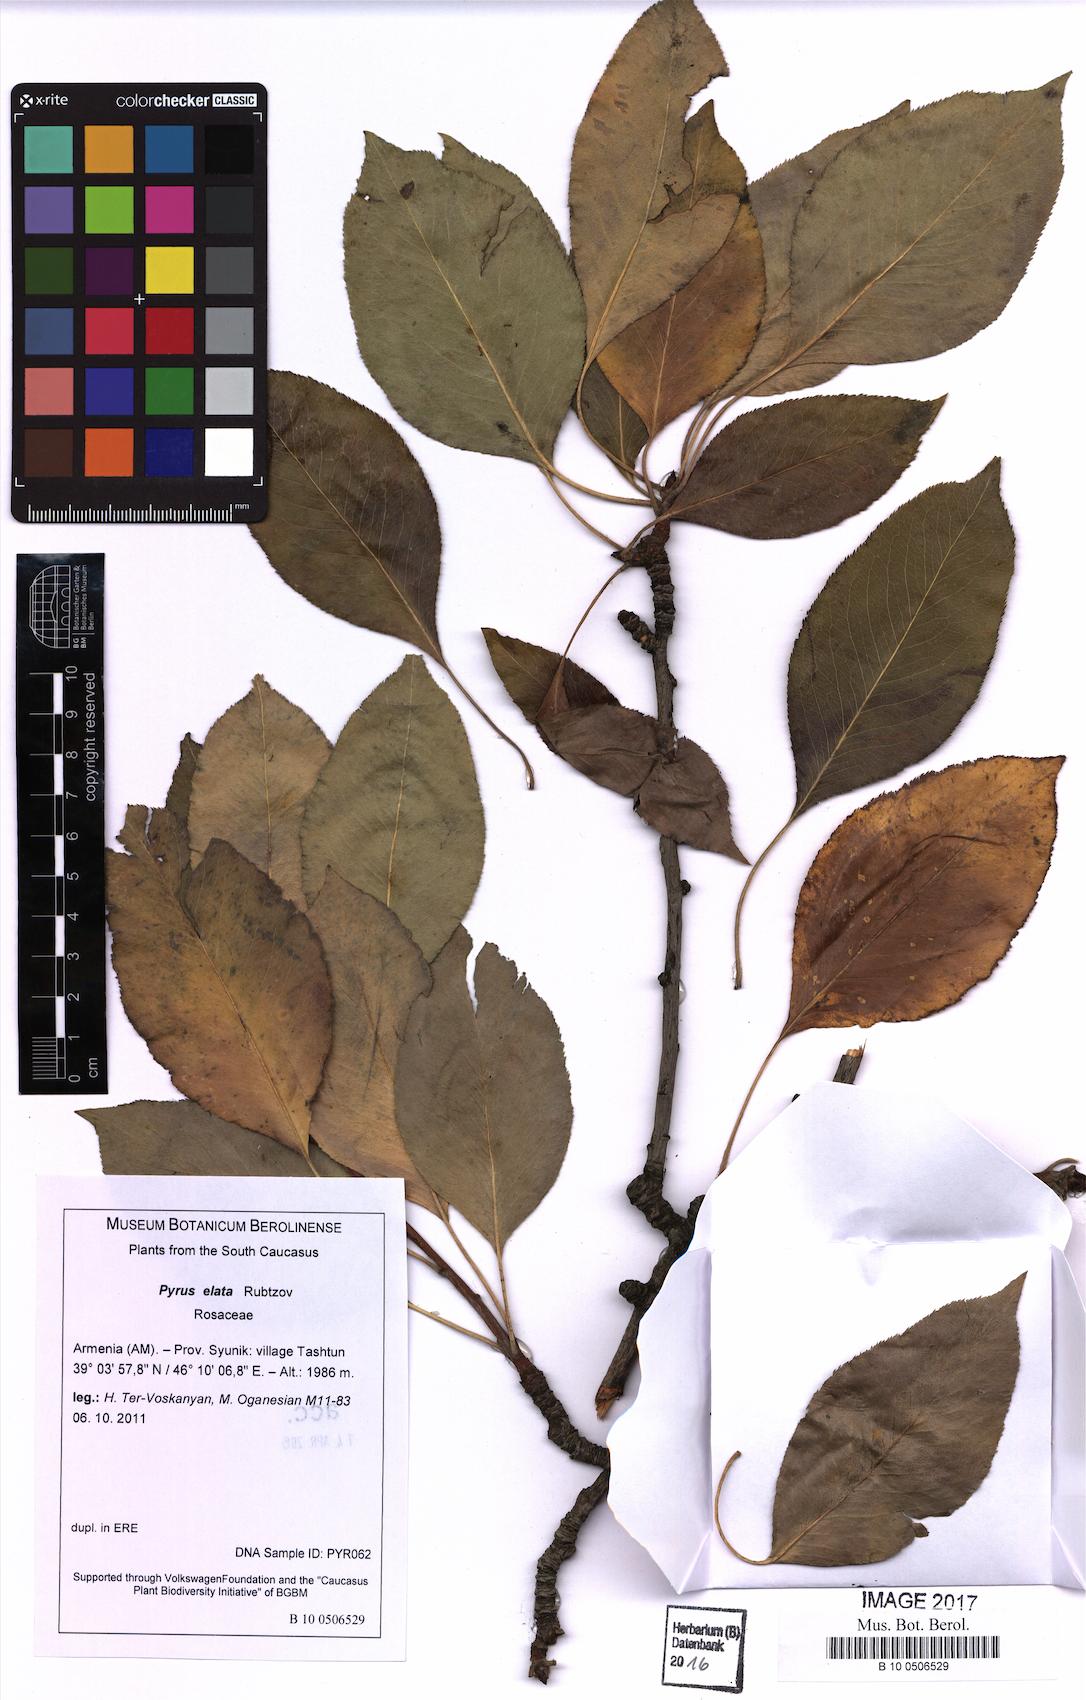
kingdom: Plantae
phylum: Tracheophyta
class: Magnoliopsida
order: Rosales
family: Rosaceae
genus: Pyrus
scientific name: Pyrus communis
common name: Pear
